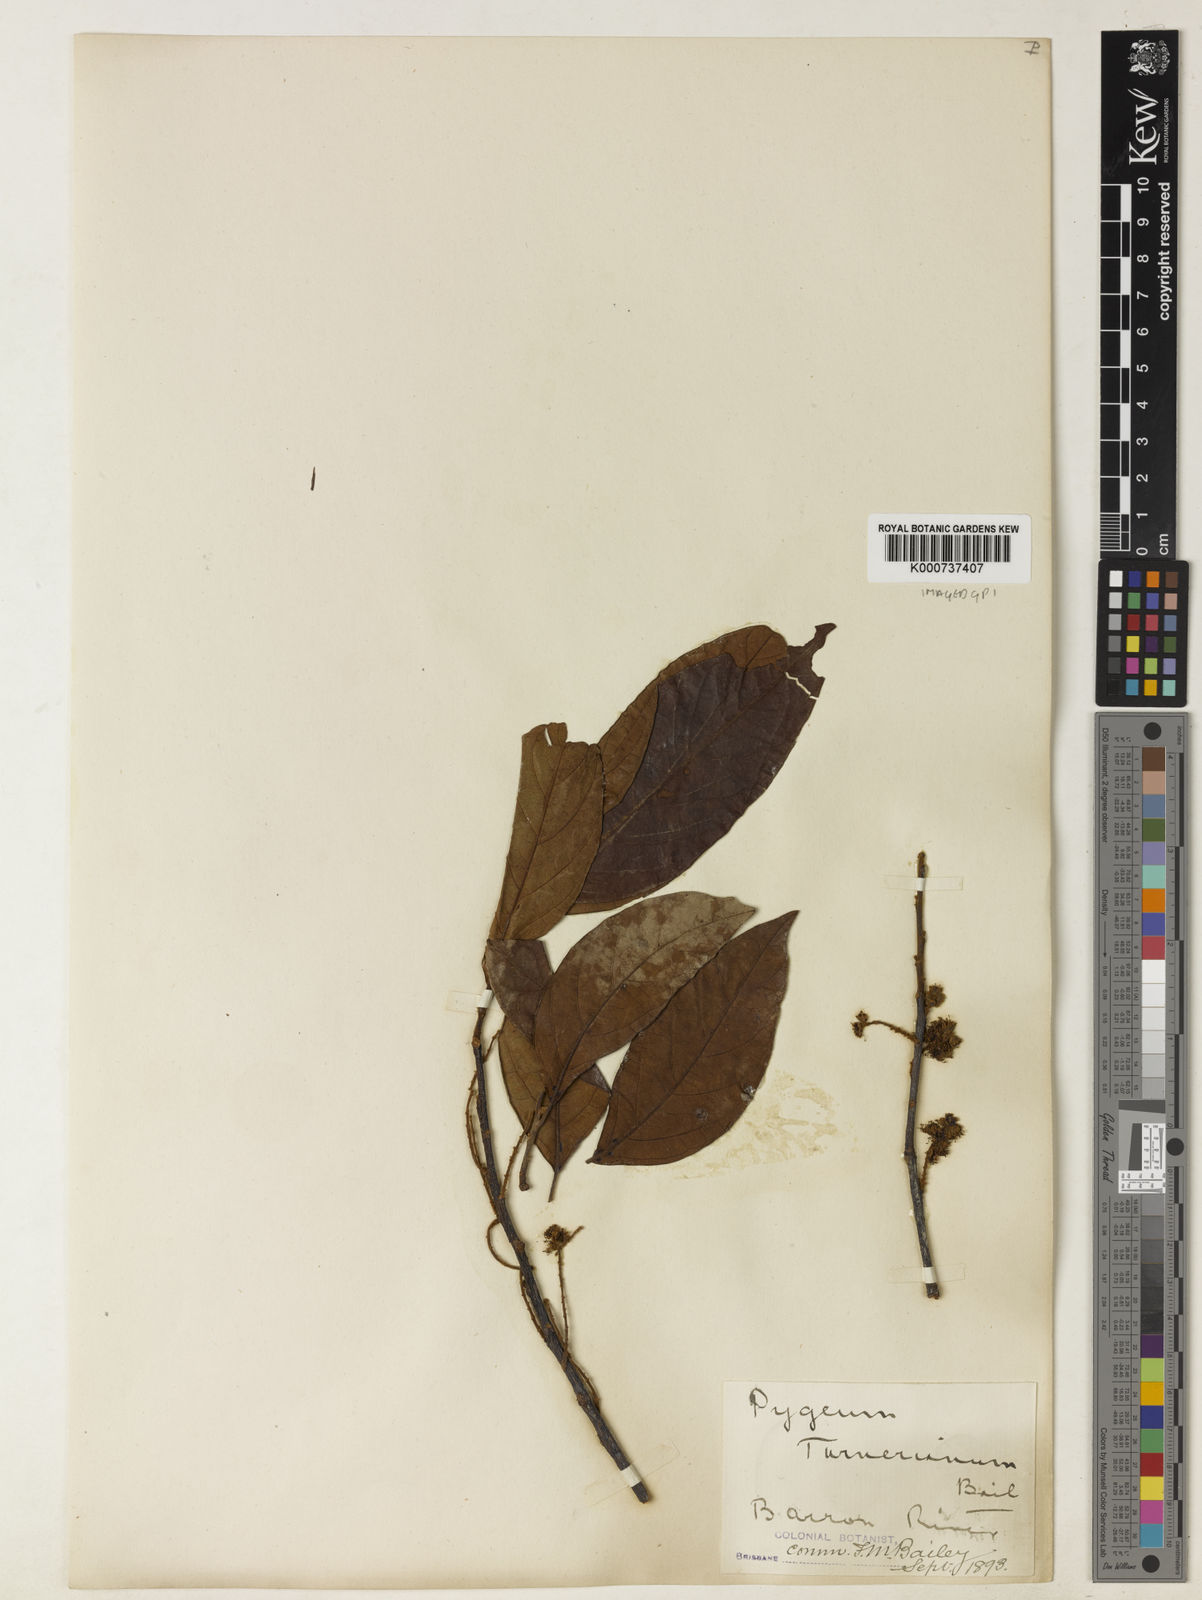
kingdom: Plantae
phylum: Tracheophyta
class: Magnoliopsida
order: Rosales
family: Rosaceae
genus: Prunus
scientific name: Prunus turneriana
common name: Wild almond
